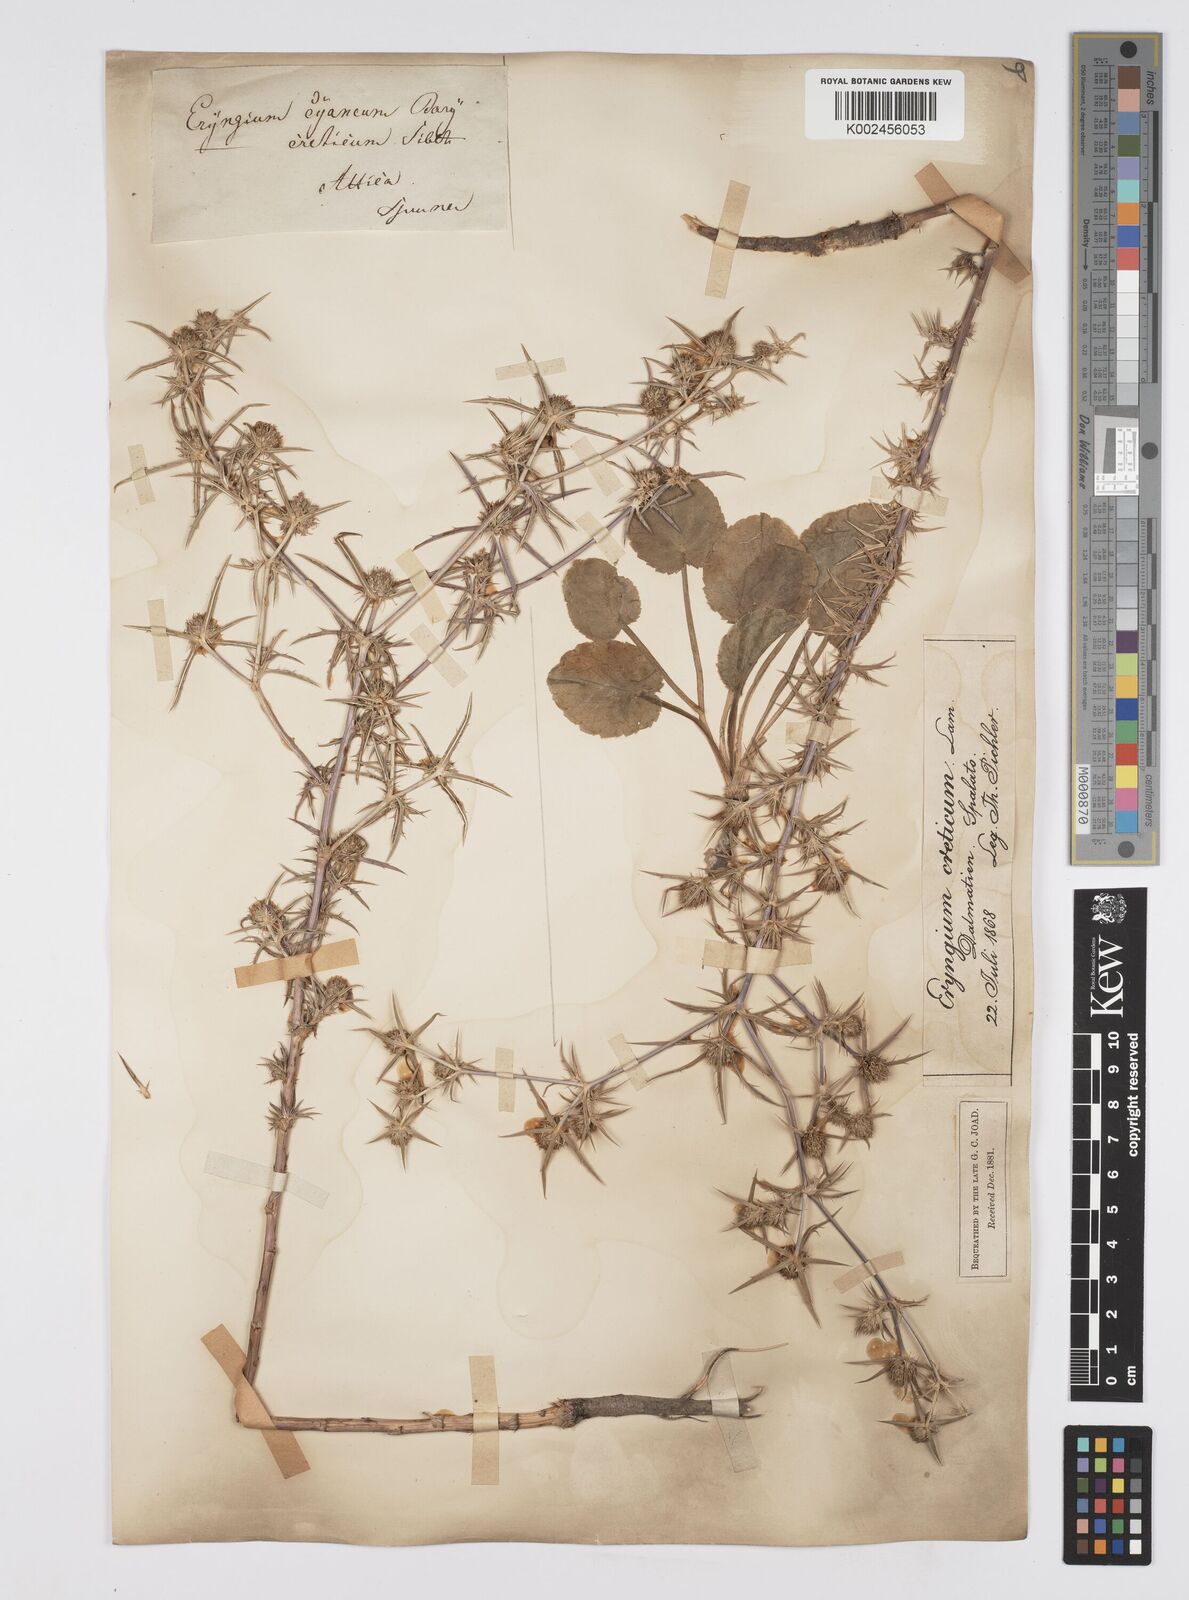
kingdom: Plantae
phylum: Tracheophyta
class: Magnoliopsida
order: Apiales
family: Apiaceae
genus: Eryngium
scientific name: Eryngium creticum
